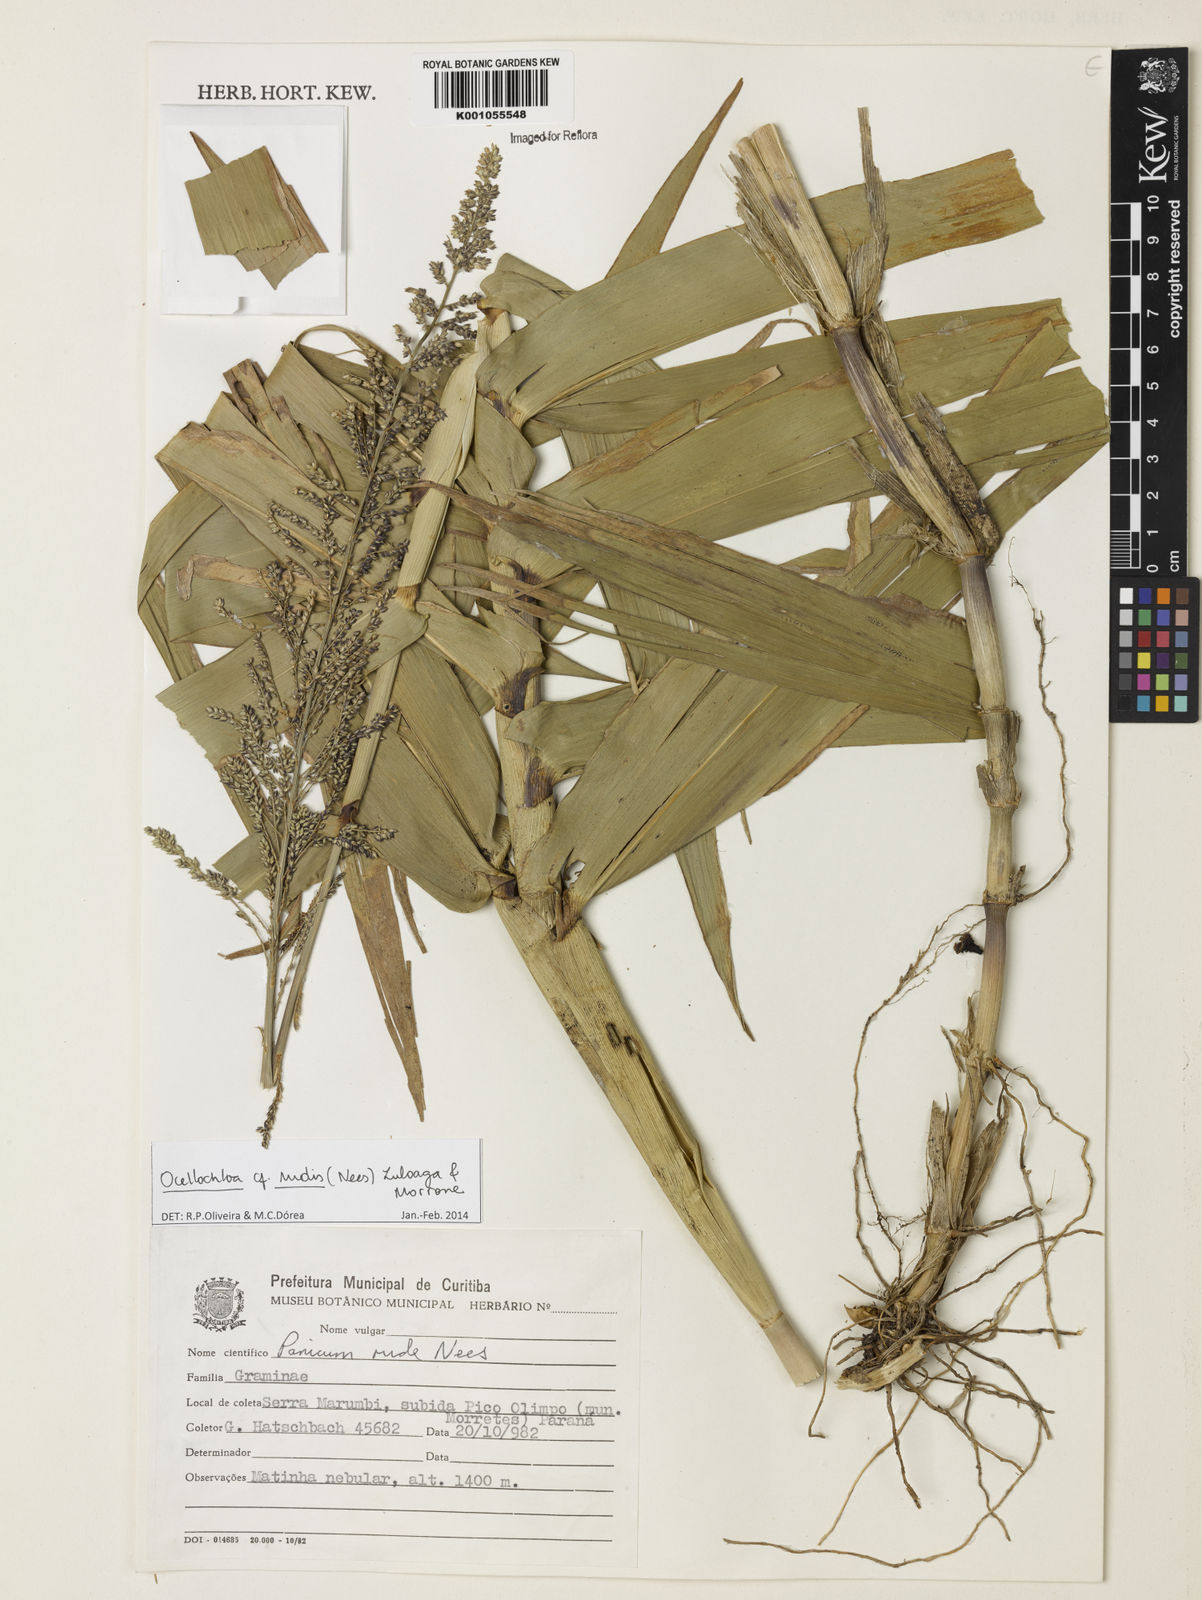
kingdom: Plantae
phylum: Tracheophyta
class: Liliopsida
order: Poales
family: Poaceae
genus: Ocellochloa
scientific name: Ocellochloa rudis
